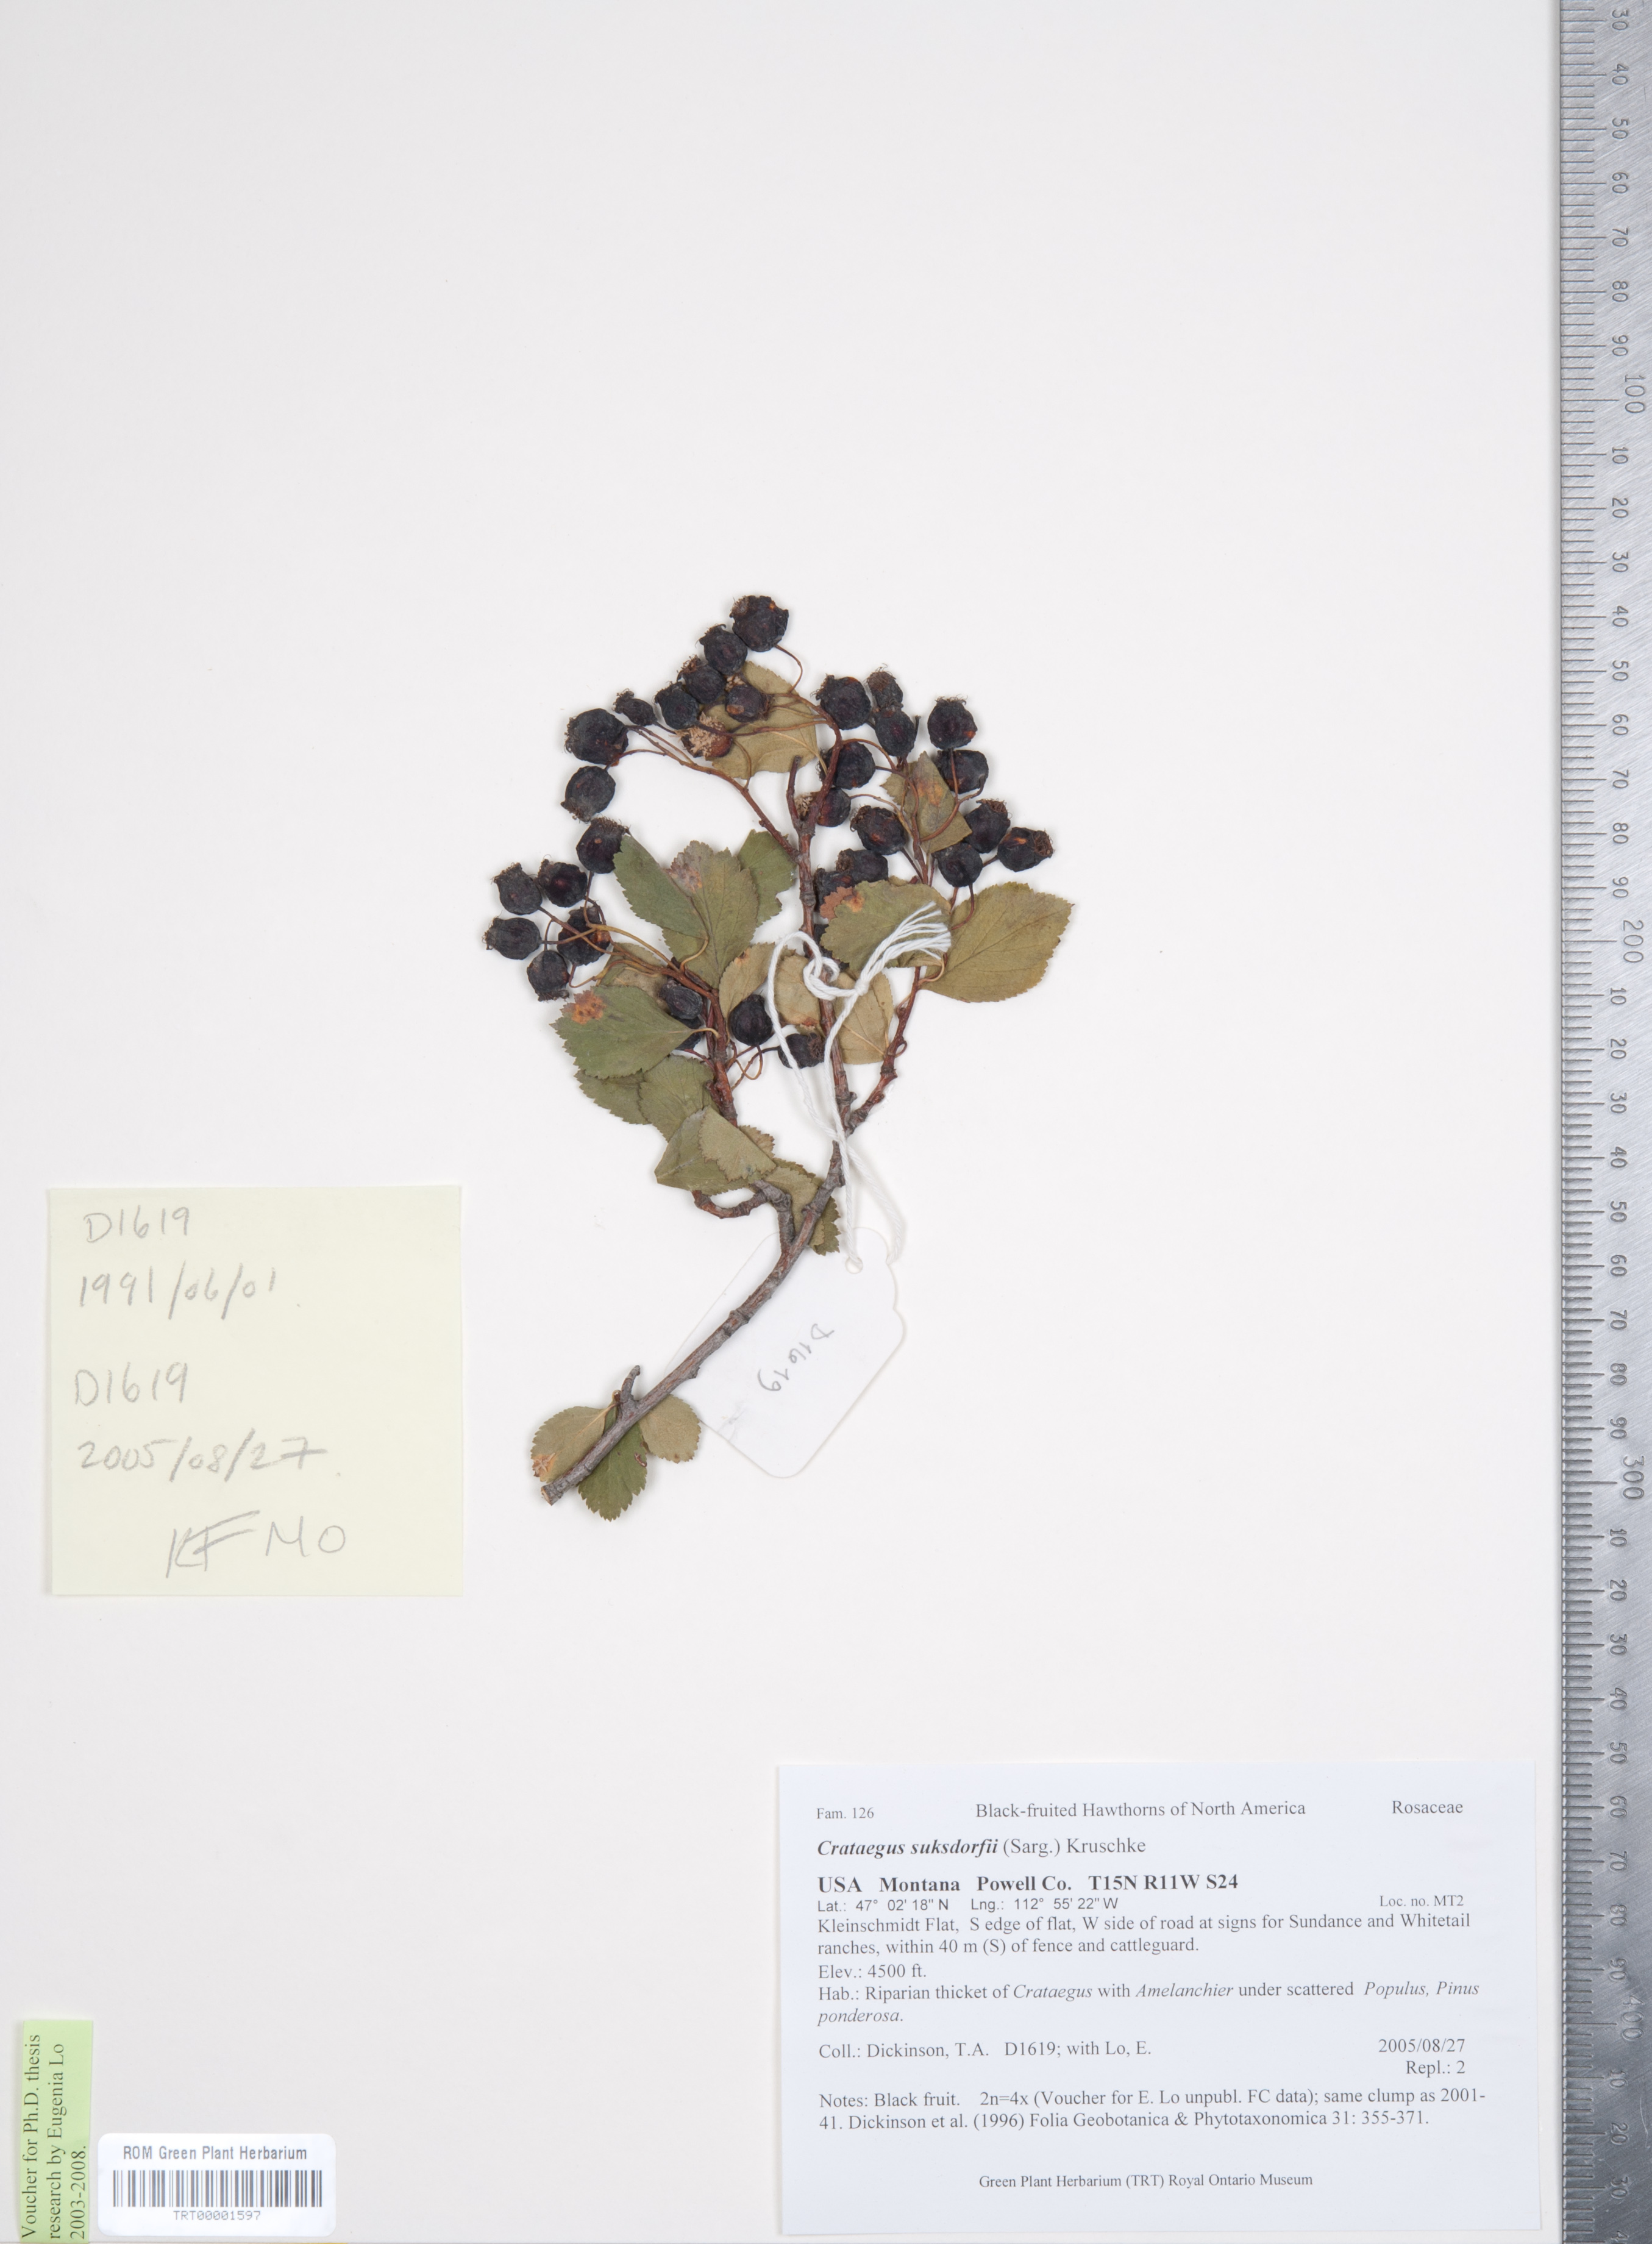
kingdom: Plantae
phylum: Tracheophyta
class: Magnoliopsida
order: Rosales
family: Rosaceae
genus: Crataegus
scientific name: Crataegus gaylussacia
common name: Huckleberry hawthorn
